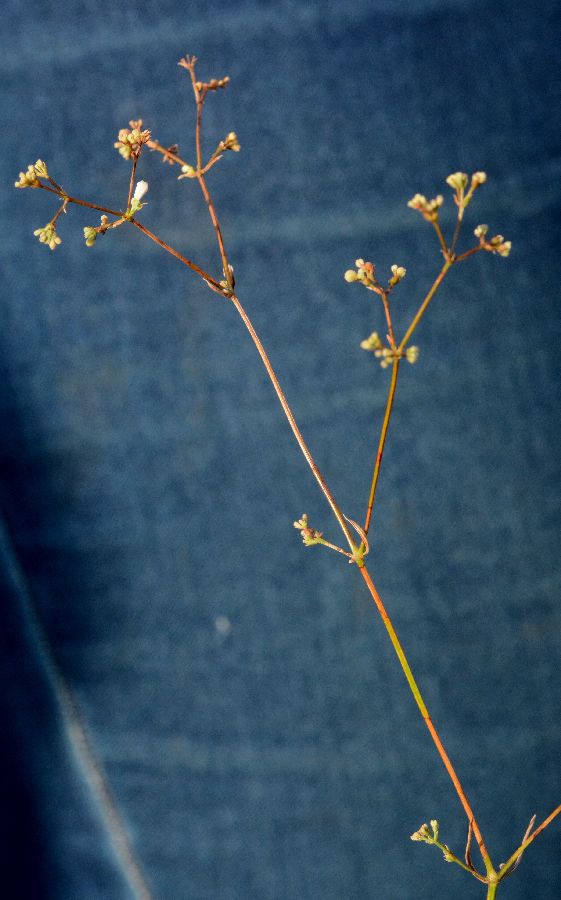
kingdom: Plantae
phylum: Tracheophyta
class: Magnoliopsida
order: Gentianales
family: Rubiaceae
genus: Cynanchica
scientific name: Cynanchica pyrenaica
